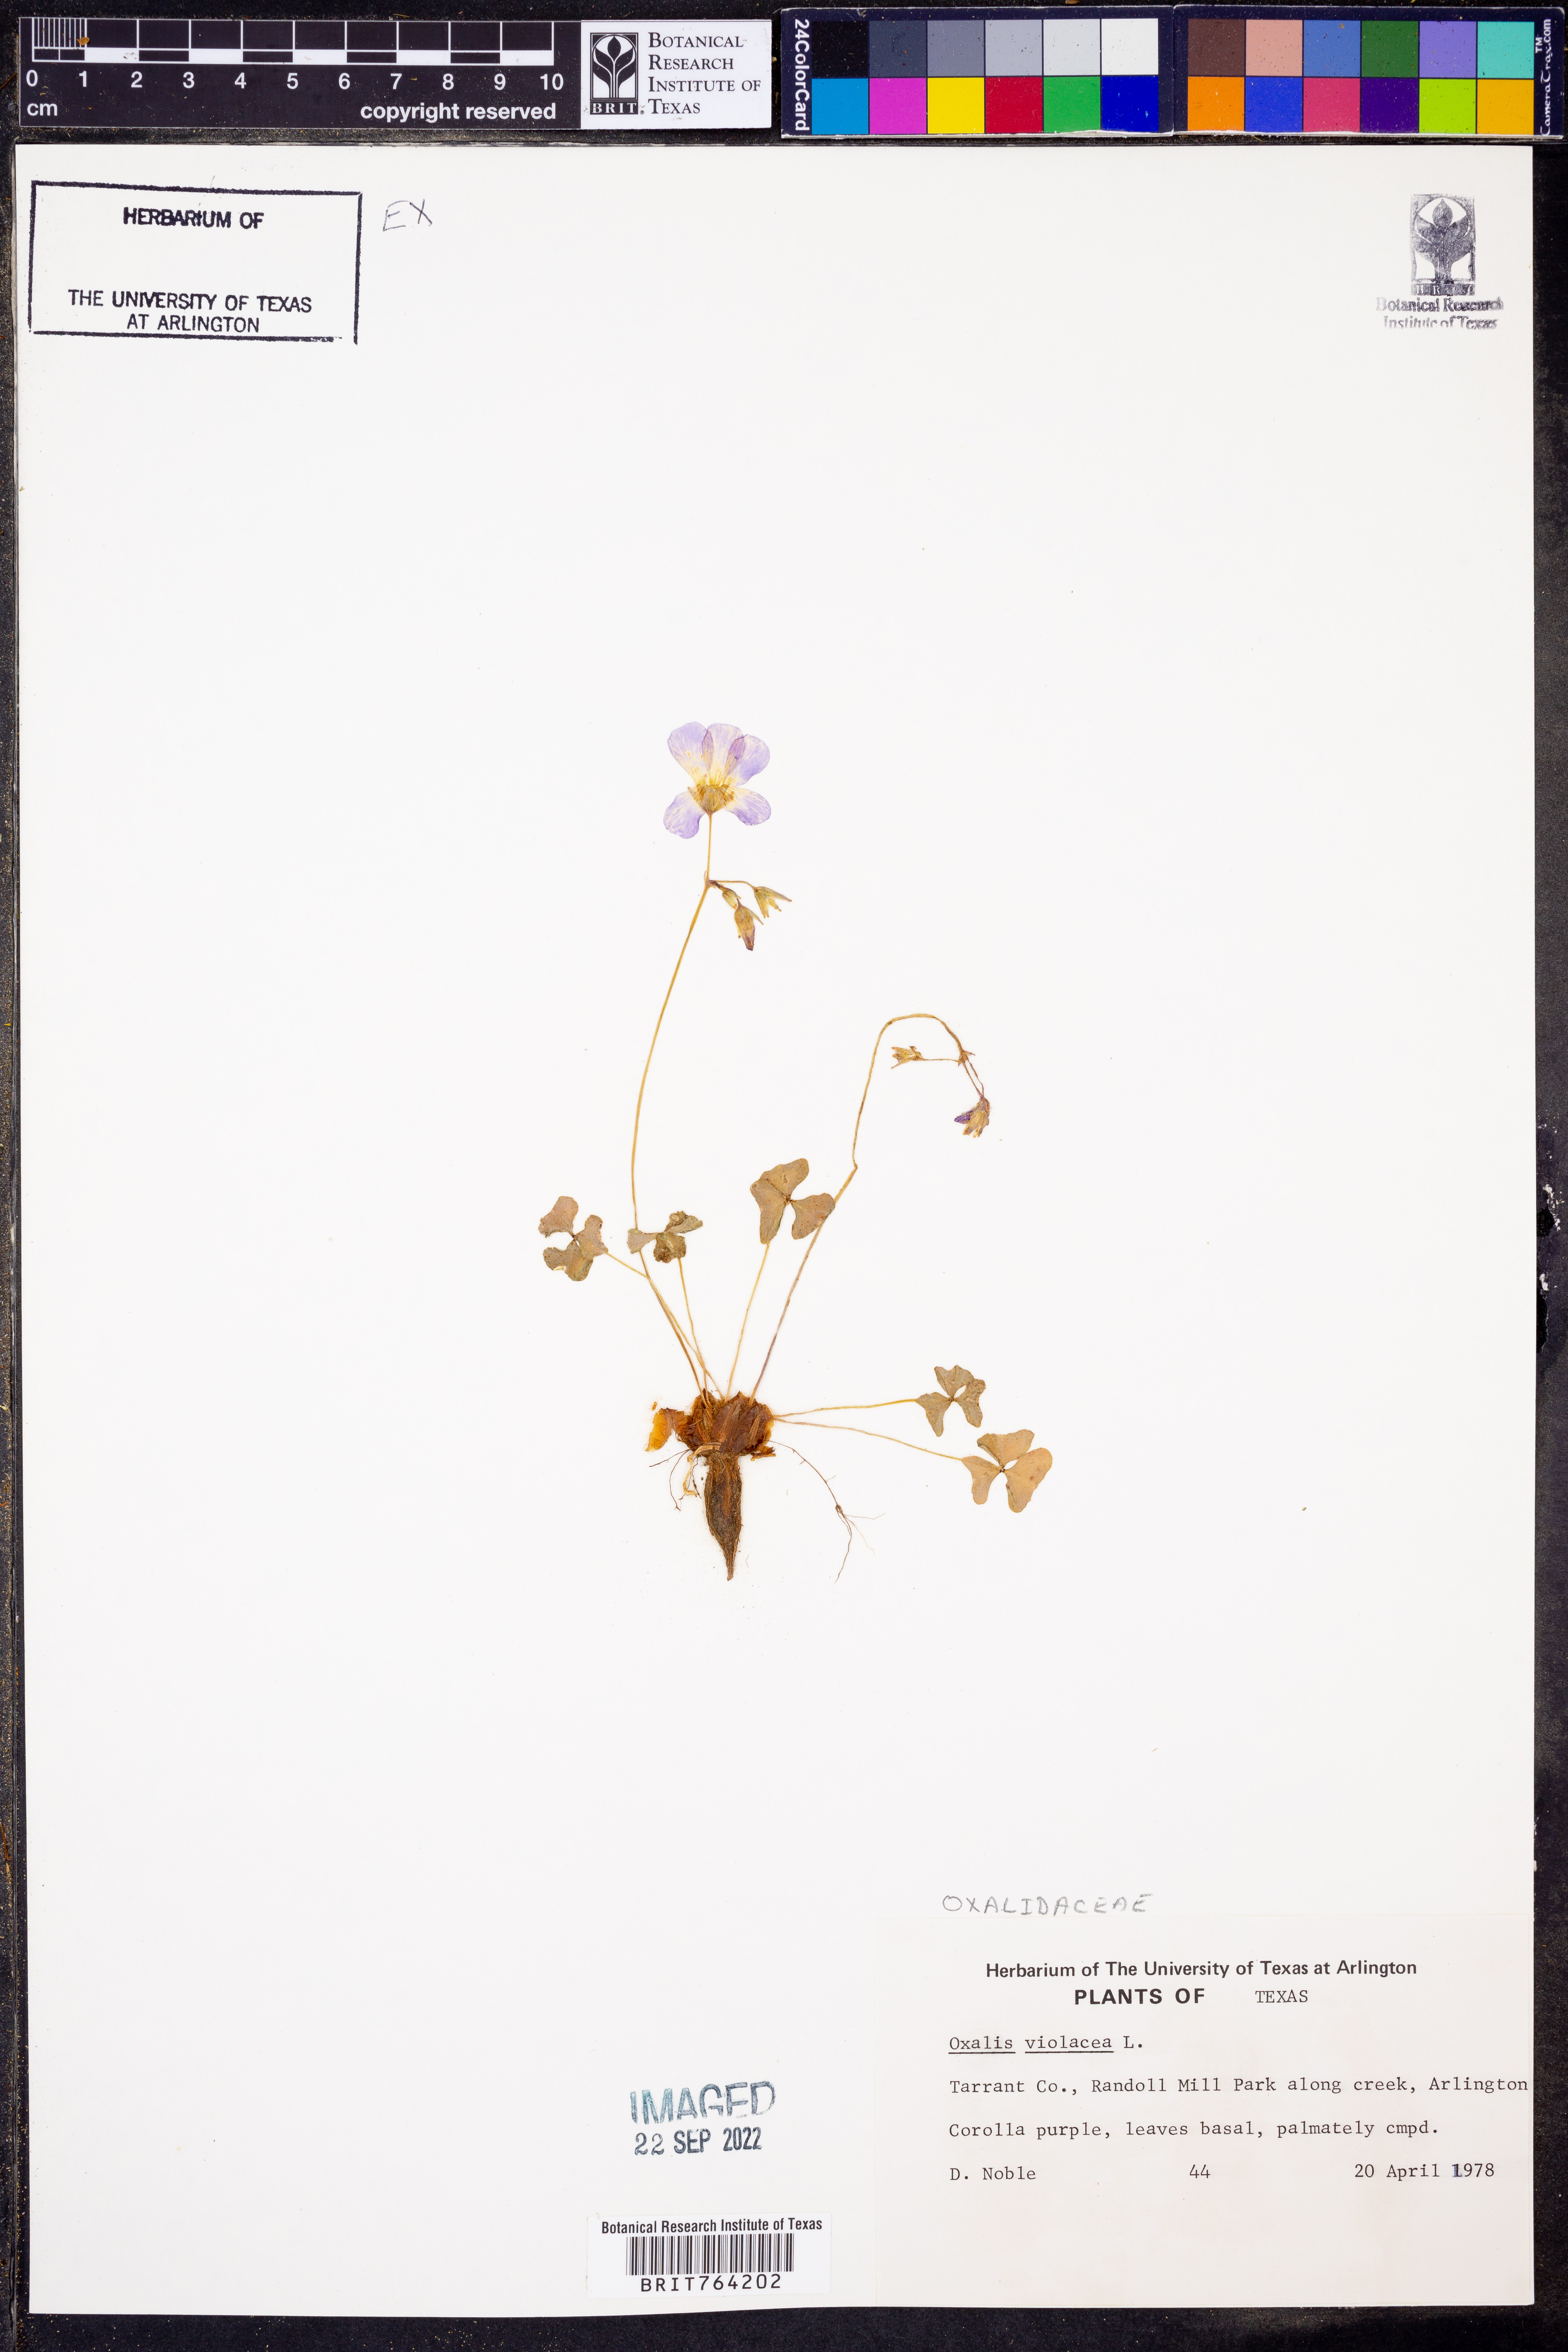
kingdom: Plantae
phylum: Tracheophyta
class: Magnoliopsida
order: Oxalidales
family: Oxalidaceae
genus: Oxalis
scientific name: Oxalis violacea
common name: Violet wood-sorrel
